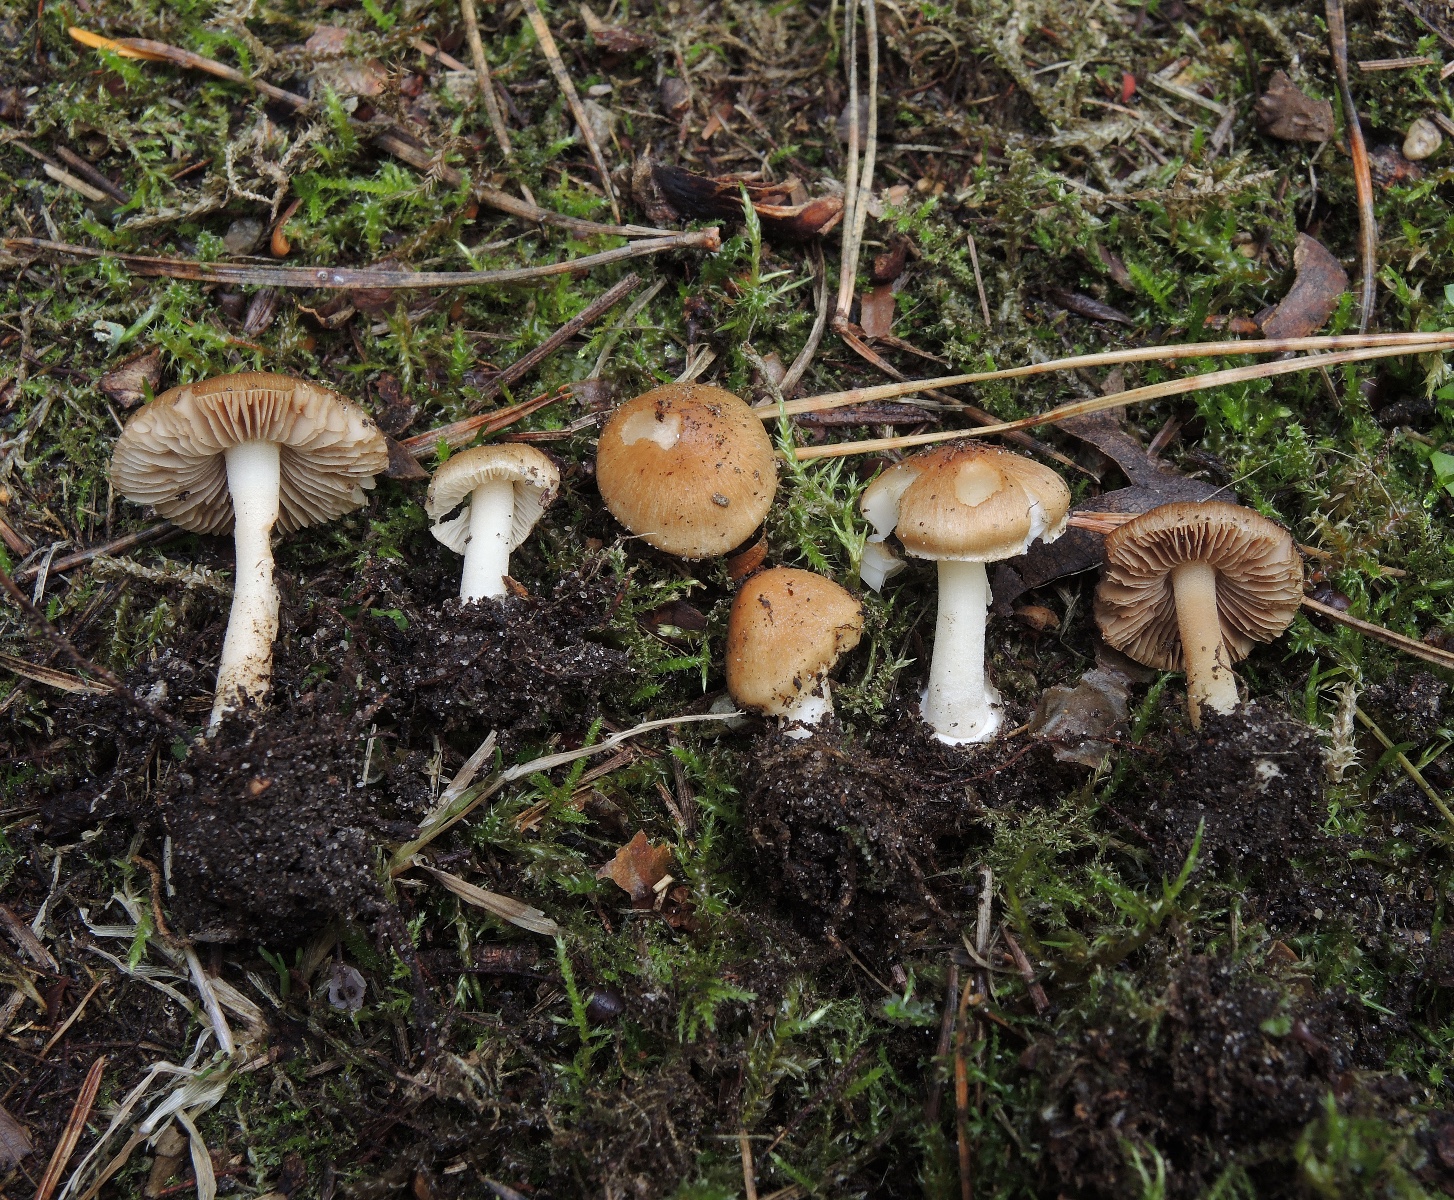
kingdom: Fungi
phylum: Basidiomycota
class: Agaricomycetes
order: Agaricales
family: Inocybaceae
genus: Inocybe
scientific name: Inocybe mixtilis
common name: randknoldet trævlhat
